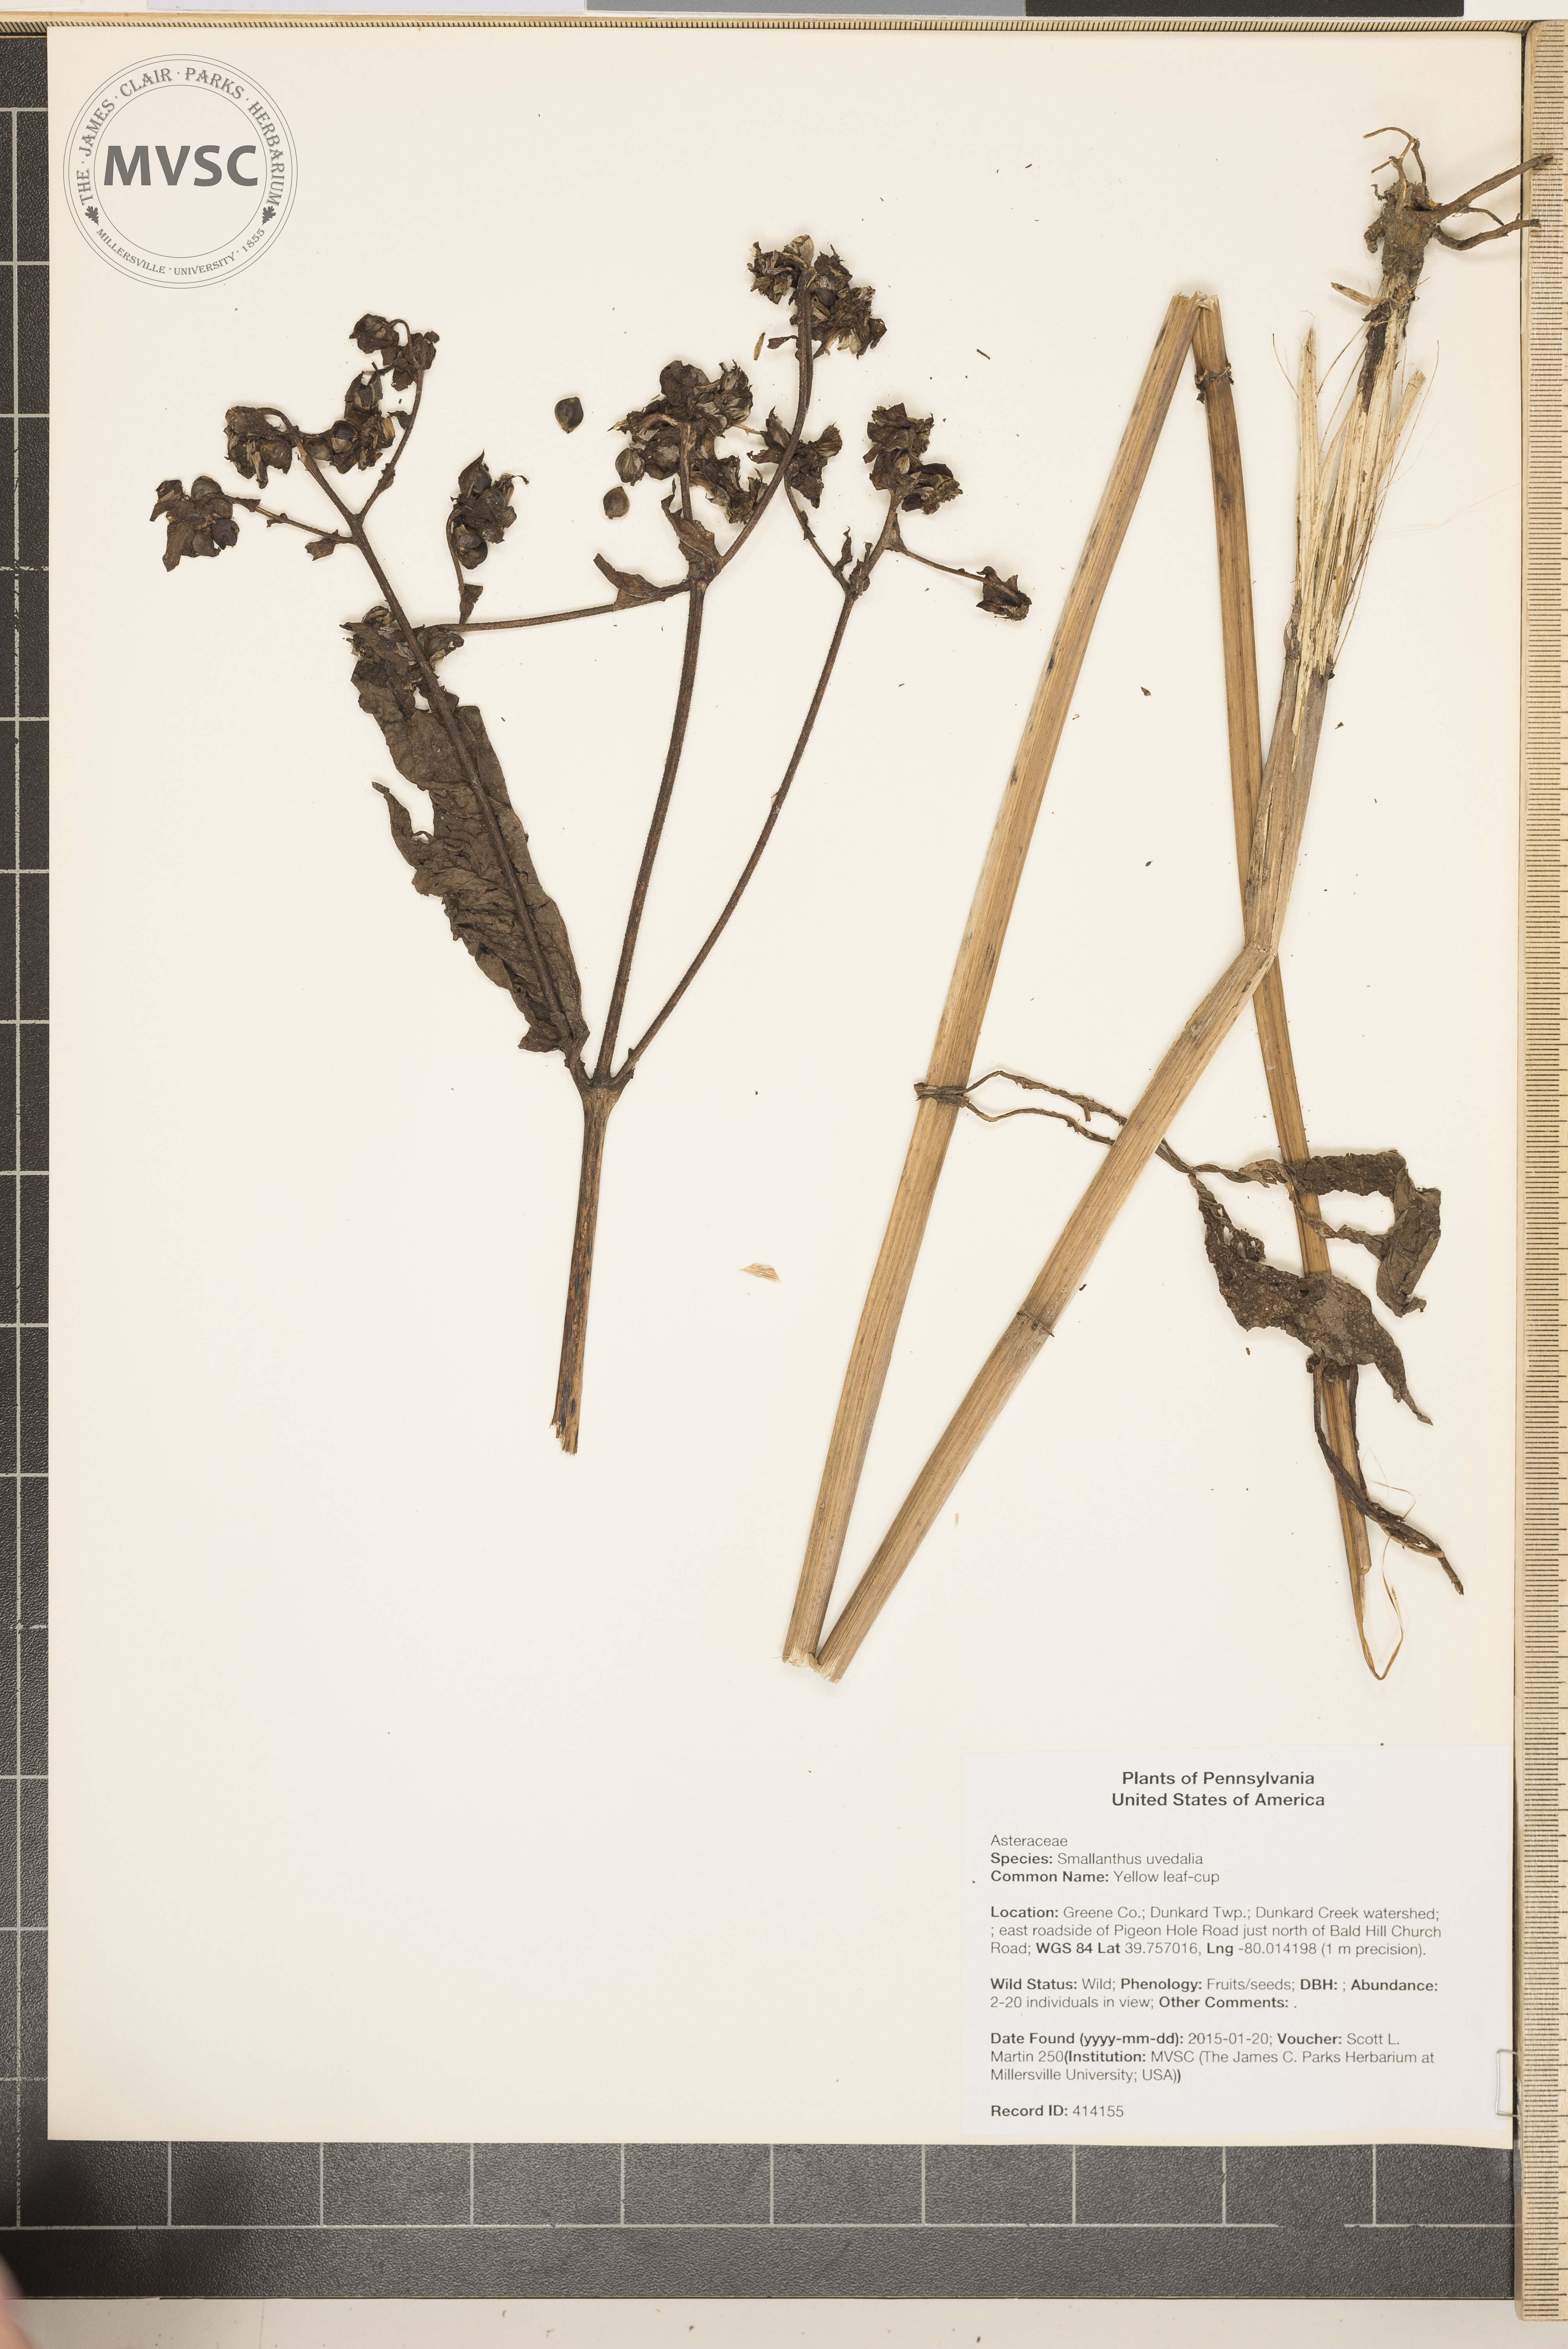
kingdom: Plantae
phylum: Tracheophyta
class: Magnoliopsida
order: Asterales
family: Asteraceae
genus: Smallanthus
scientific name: Smallanthus uvedalia
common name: Yellow leaf-cup
